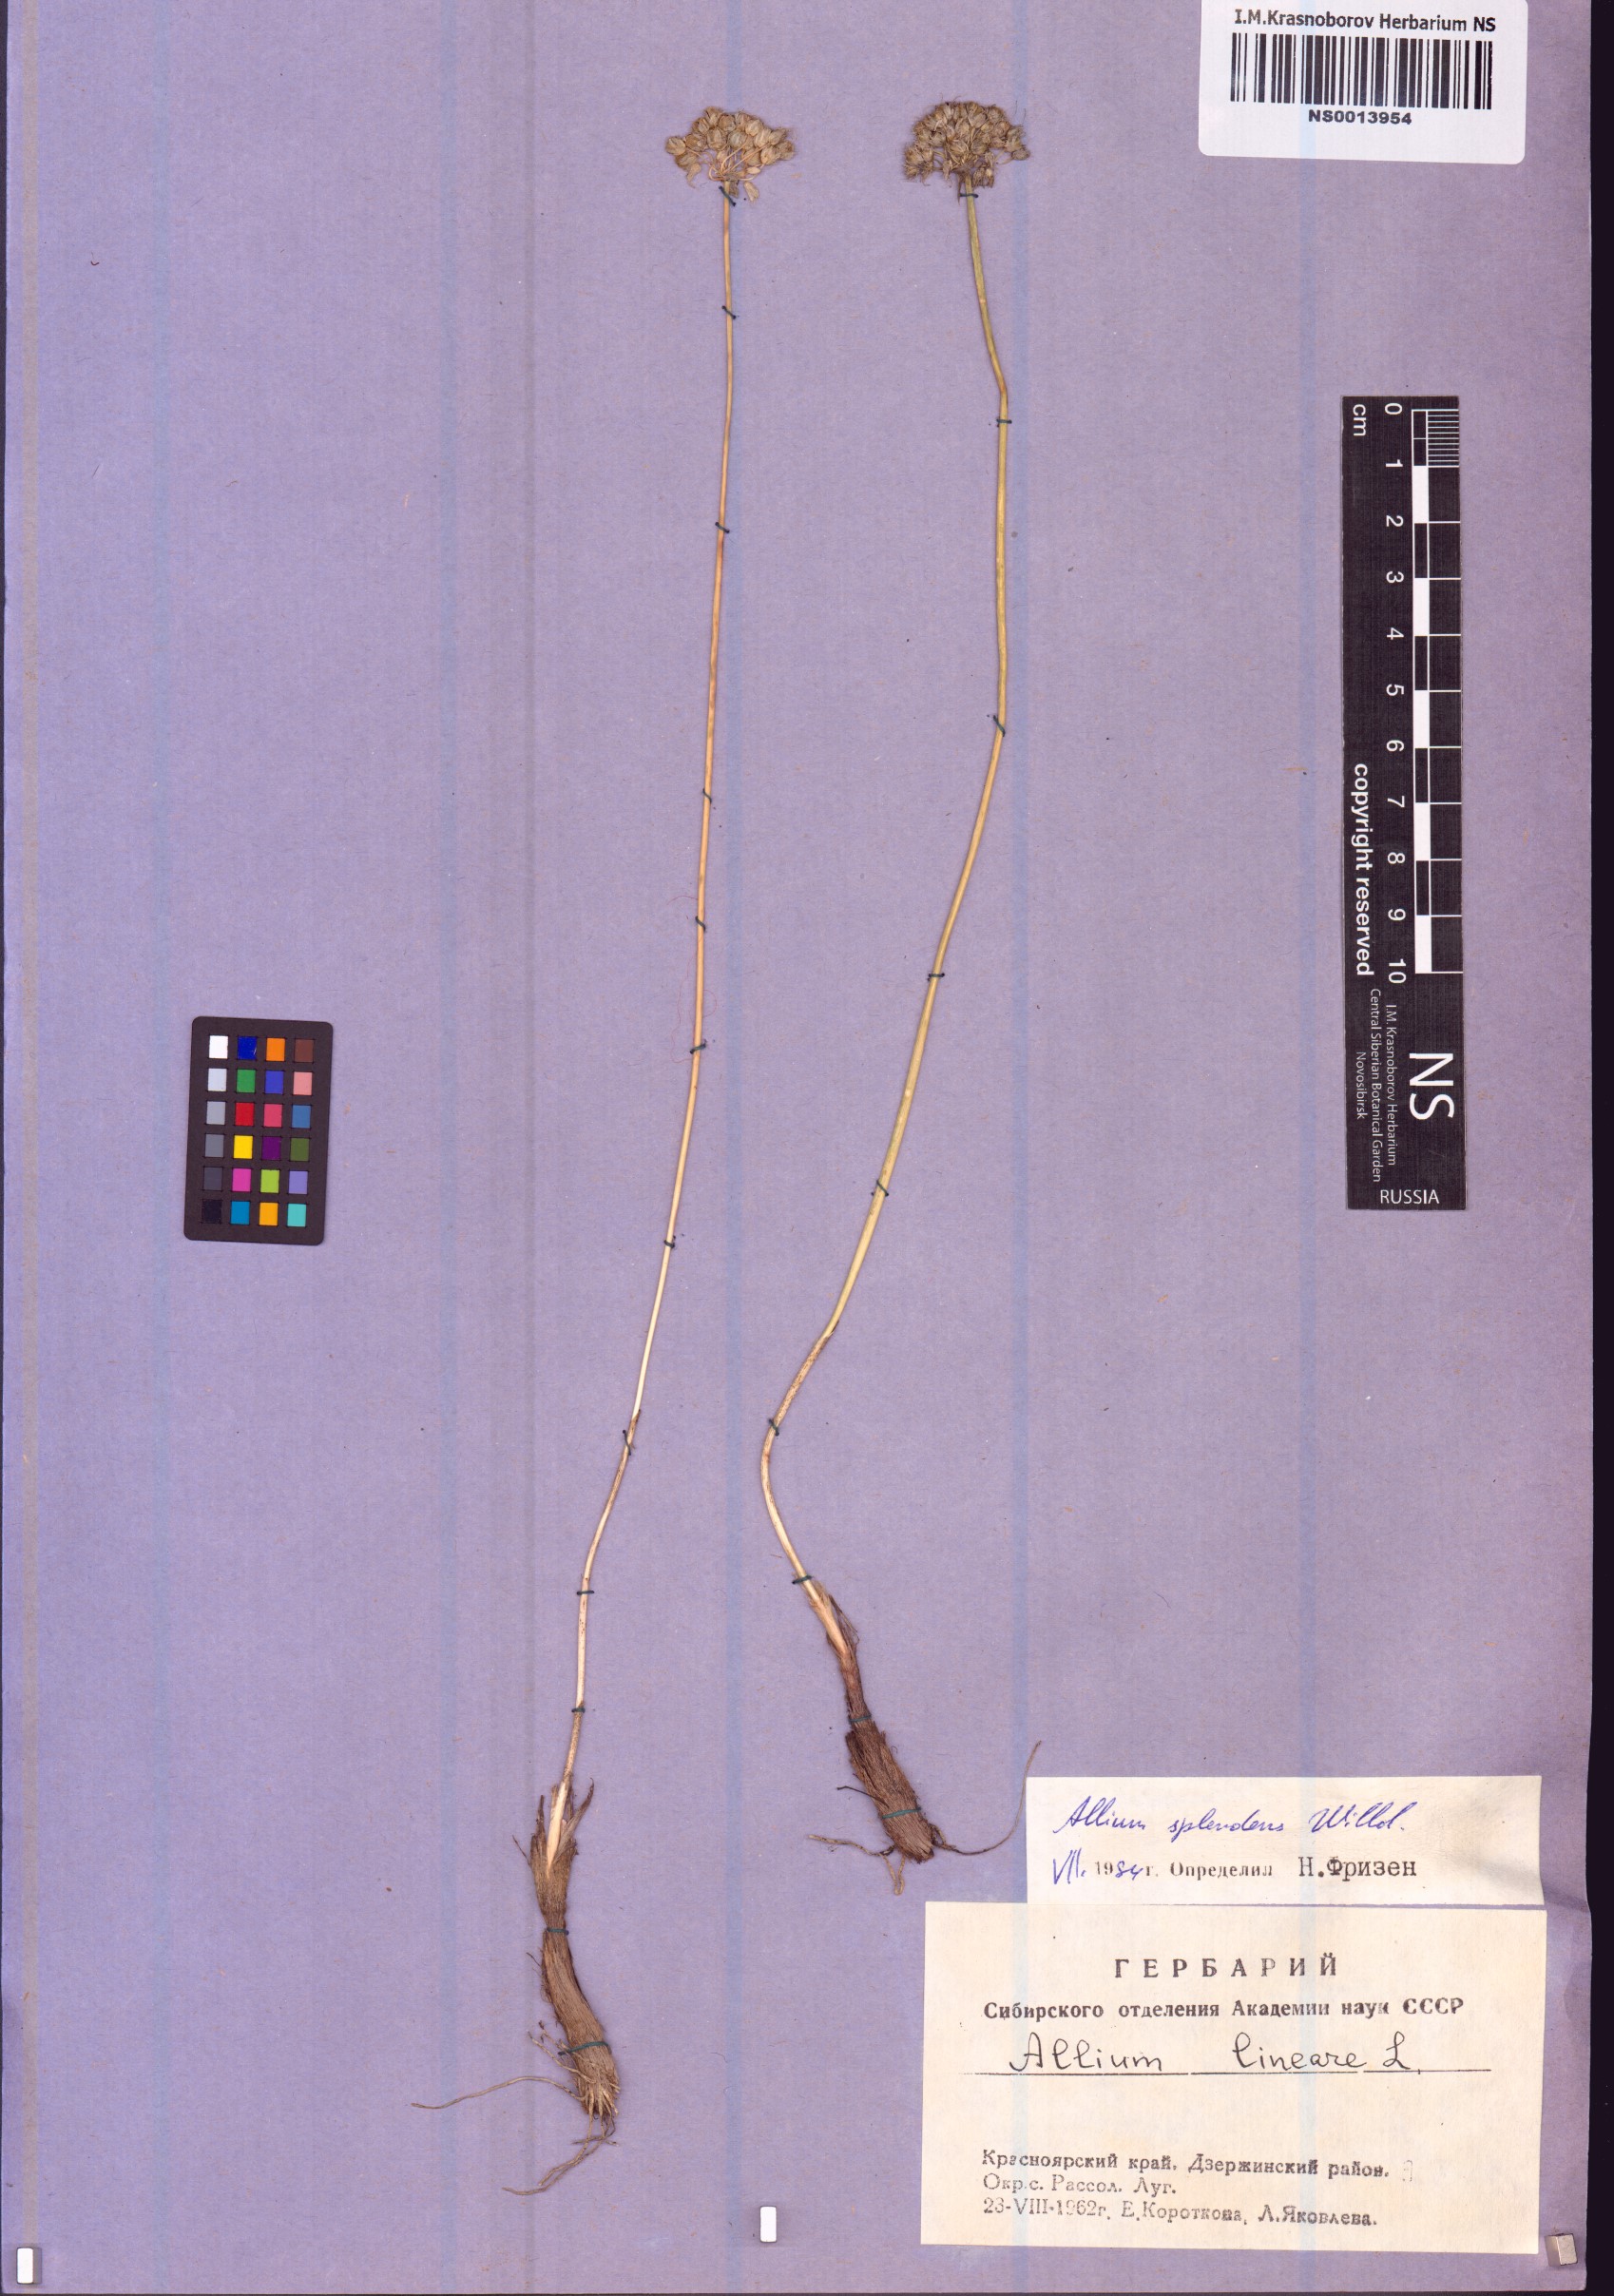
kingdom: Plantae
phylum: Tracheophyta
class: Liliopsida
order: Asparagales
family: Amaryllidaceae
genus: Allium
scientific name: Allium splendens
